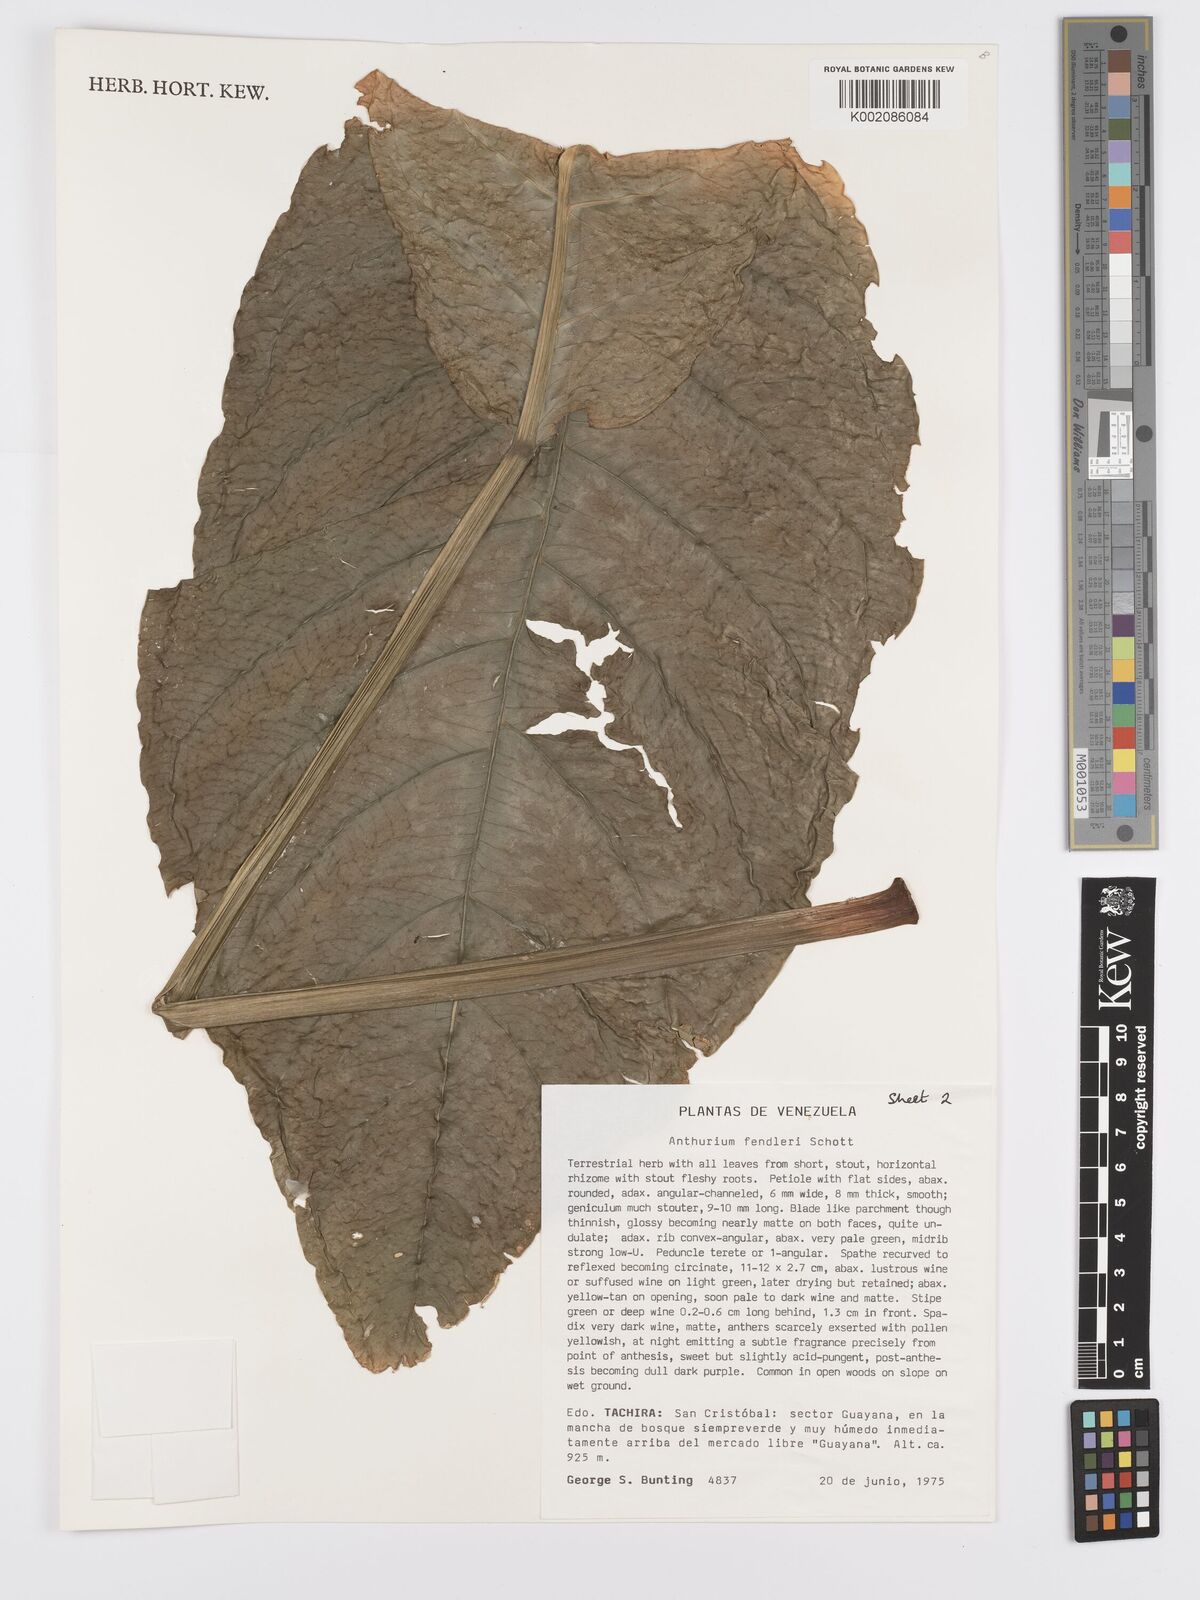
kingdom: Plantae
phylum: Tracheophyta
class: Liliopsida
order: Alismatales
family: Araceae
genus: Anthurium
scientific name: Anthurium fendleri
